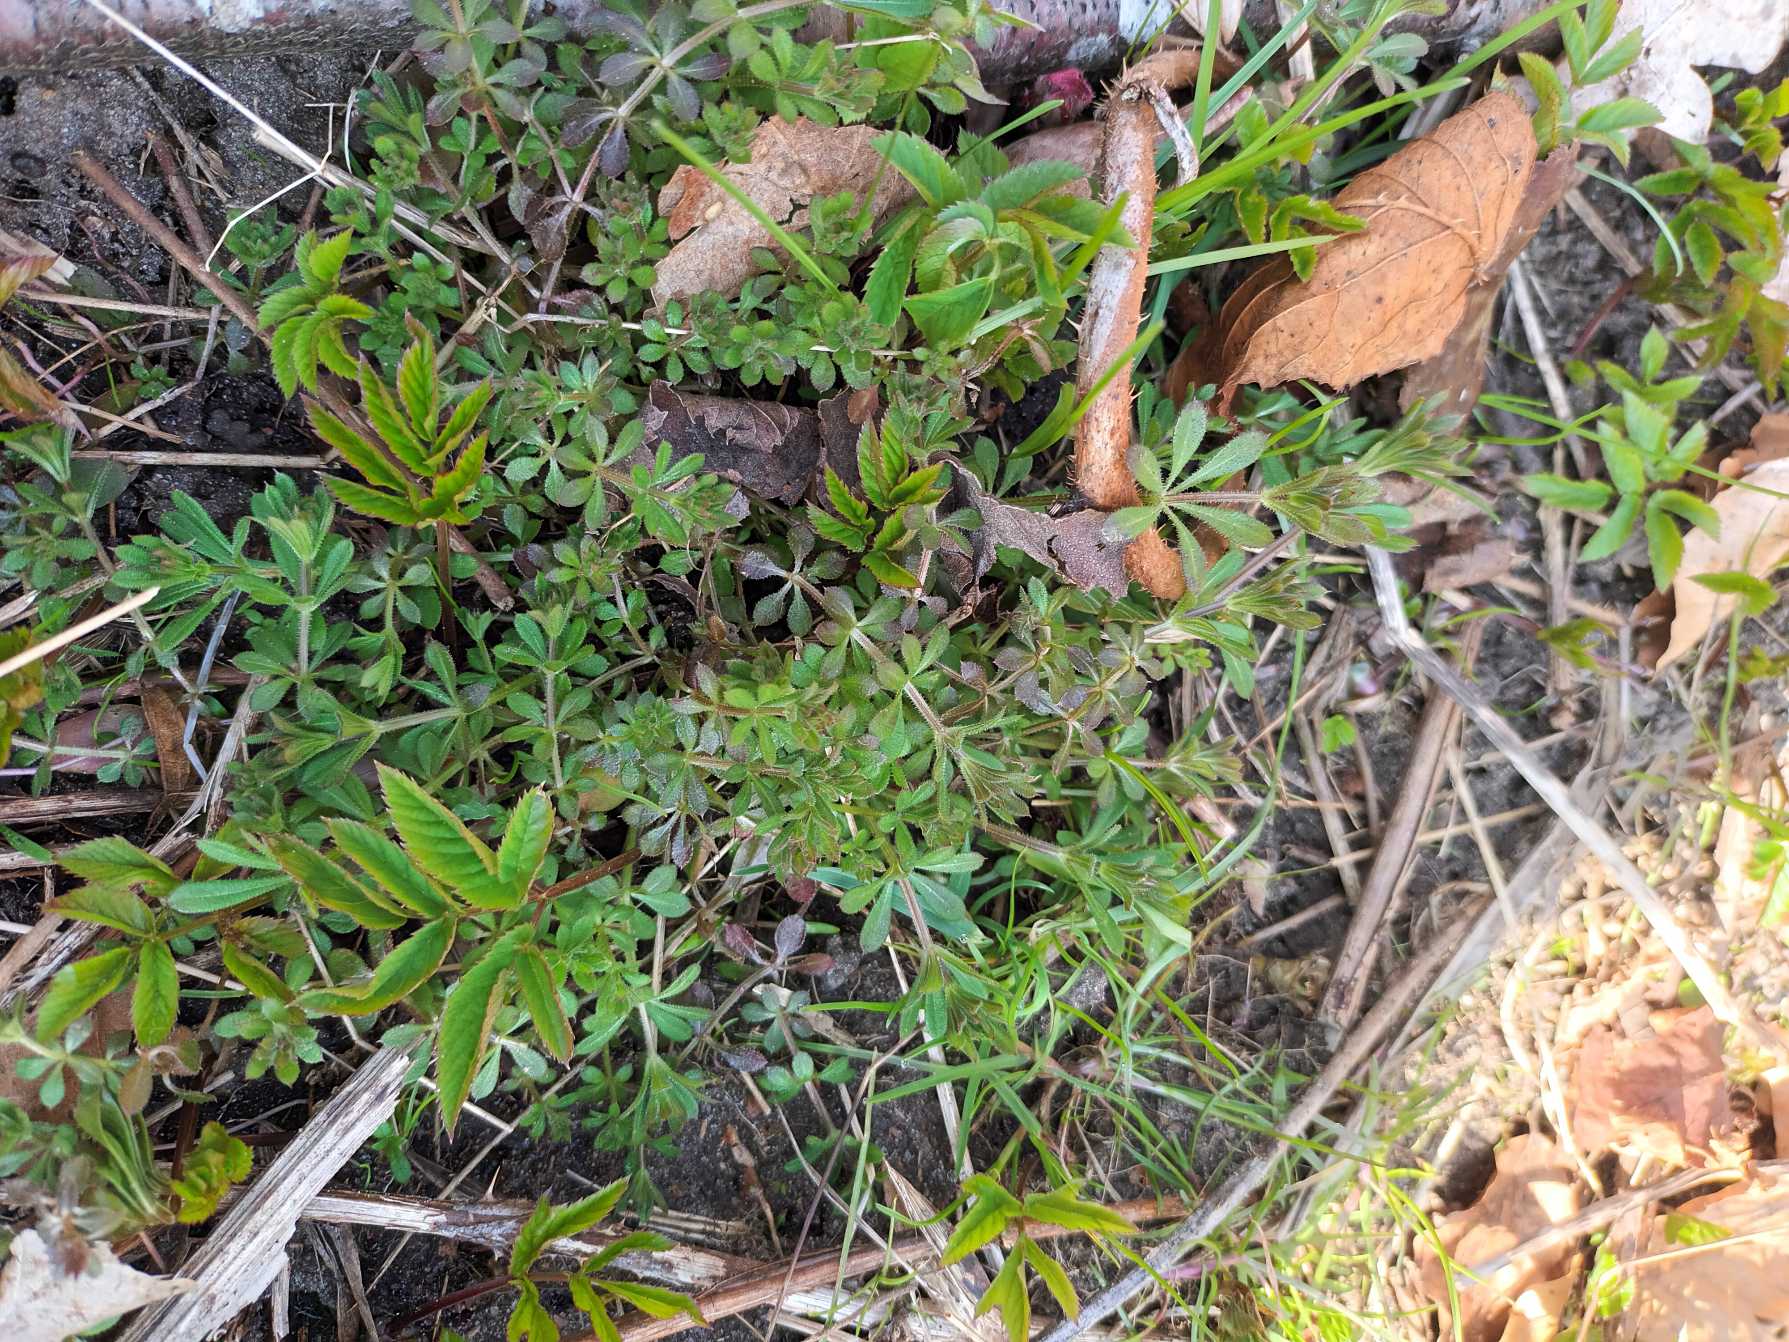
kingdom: Plantae
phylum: Tracheophyta
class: Magnoliopsida
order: Gentianales
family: Rubiaceae
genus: Galium
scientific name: Galium aparine
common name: Burre-snerre
